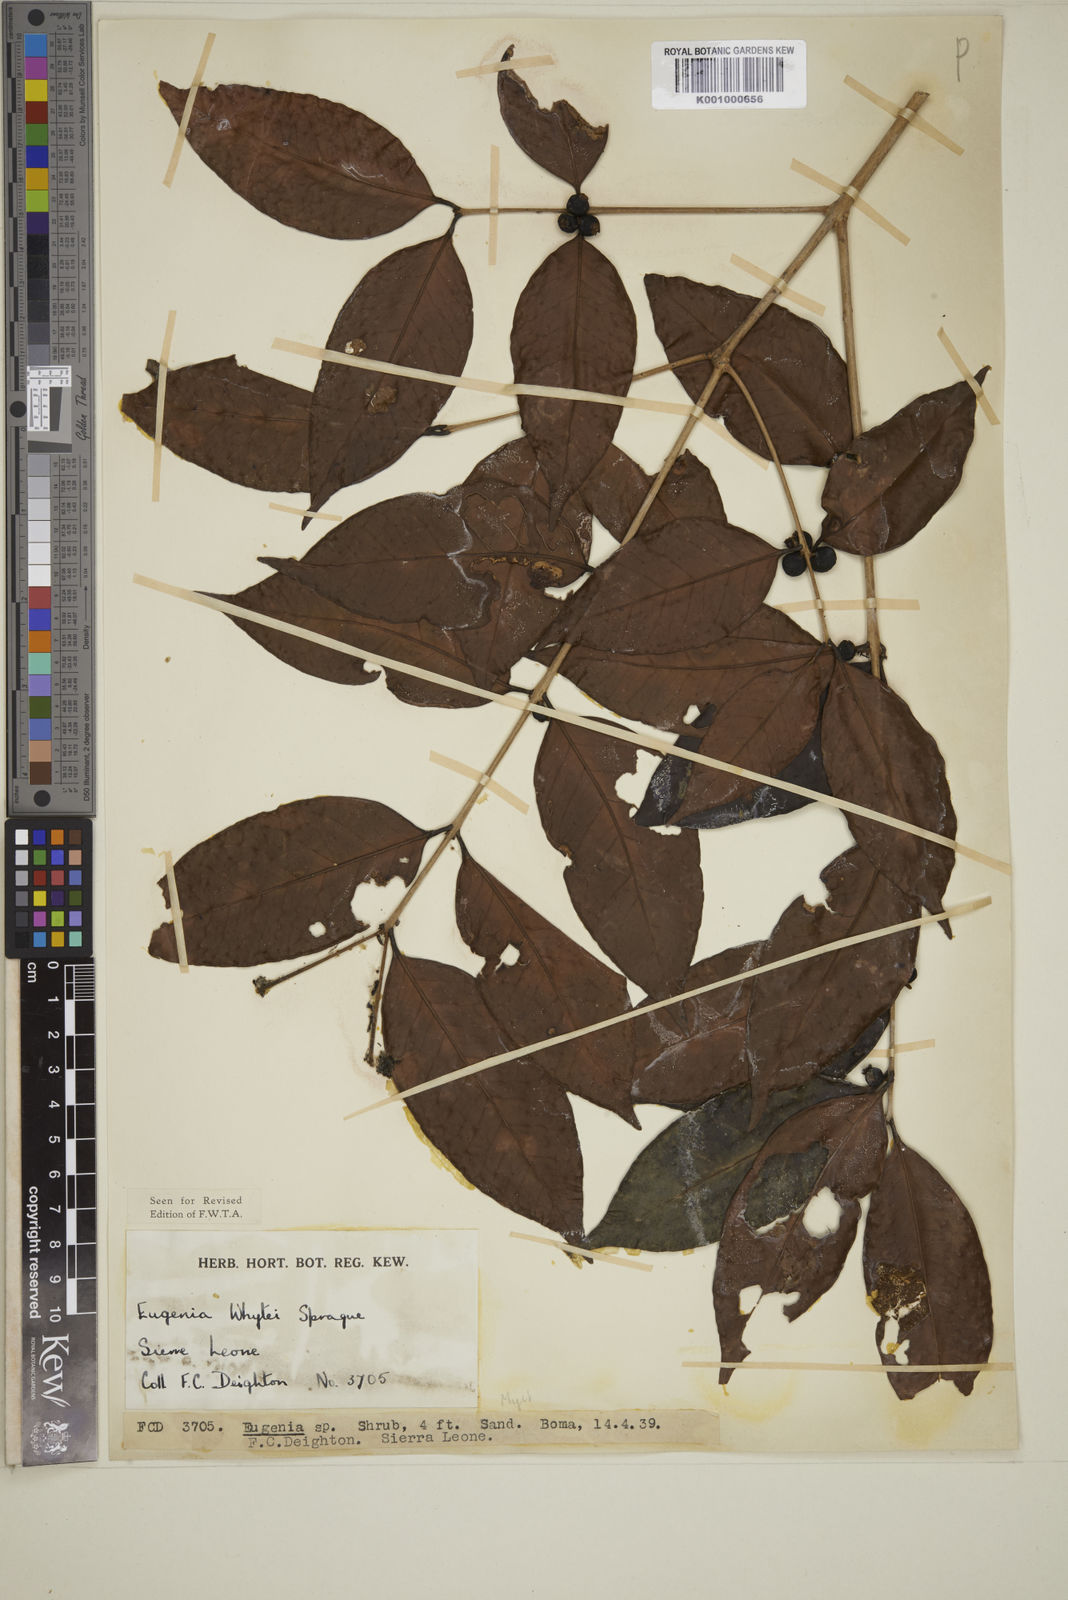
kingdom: Plantae
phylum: Tracheophyta
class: Magnoliopsida
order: Myrtales
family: Myrtaceae
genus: Eugenia
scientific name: Eugenia whytei
